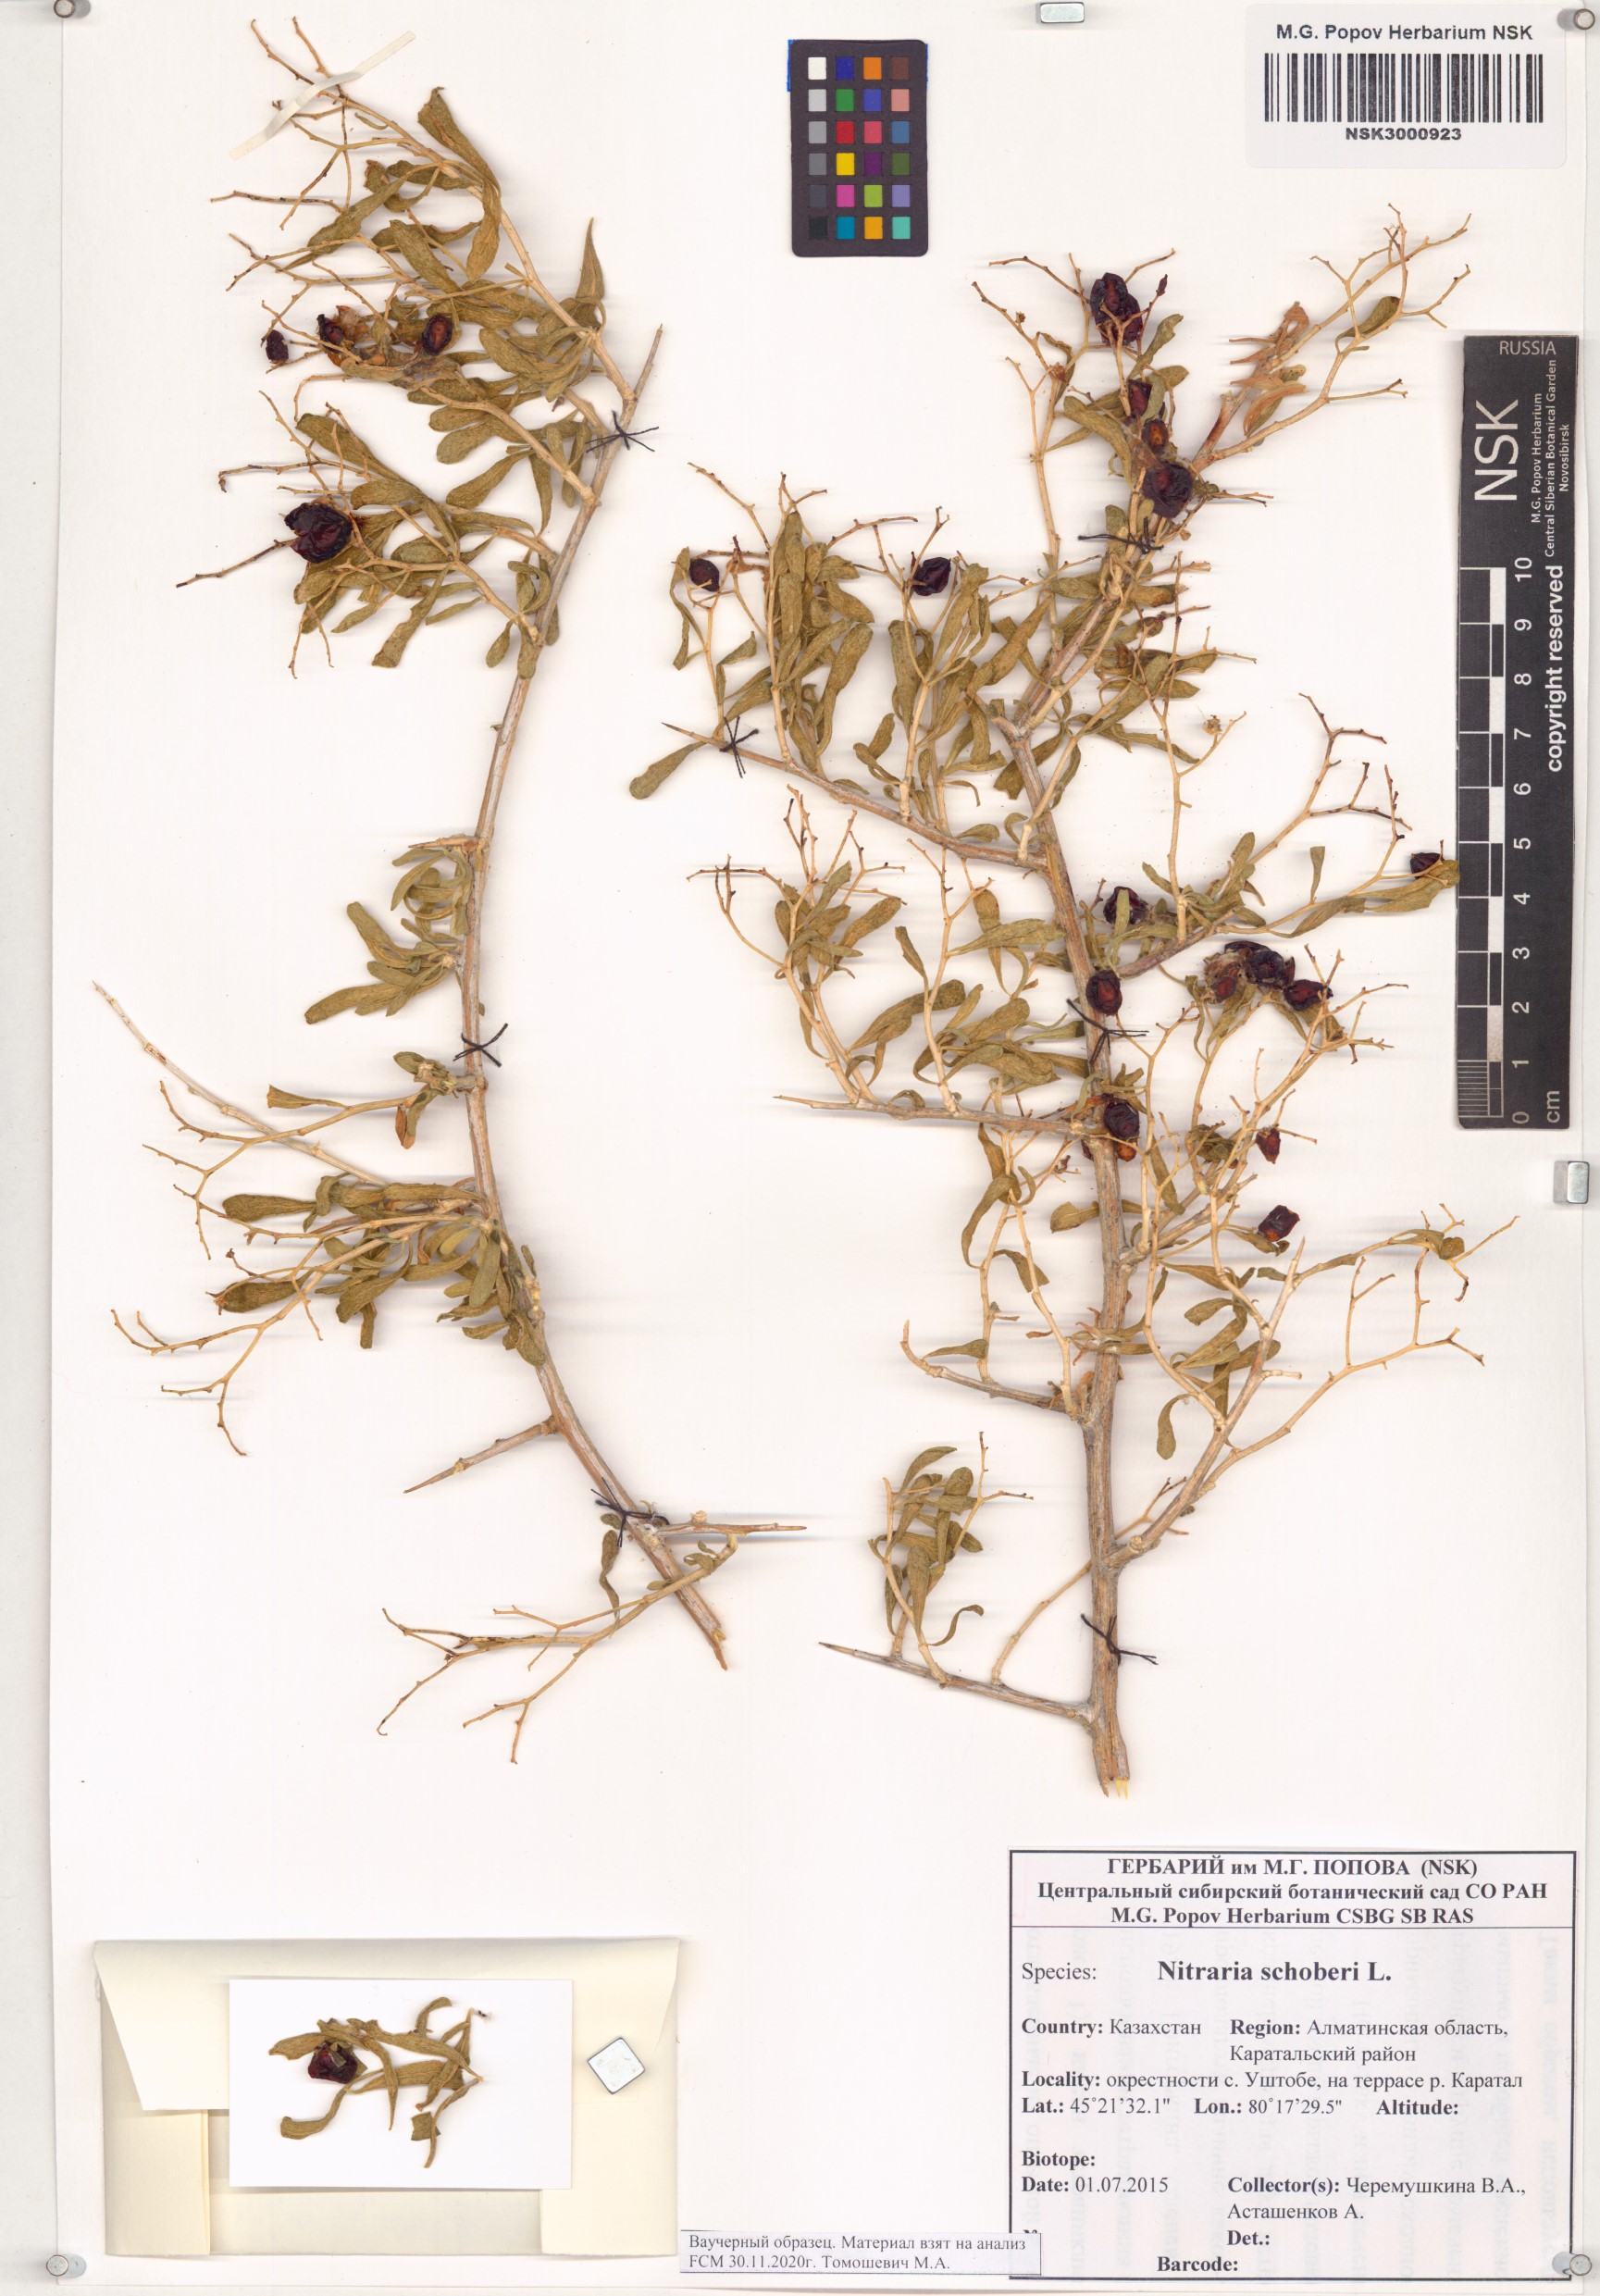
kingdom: Plantae
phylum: Tracheophyta
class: Magnoliopsida
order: Sapindales
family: Nitrariaceae
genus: Nitraria
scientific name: Nitraria schoberi
